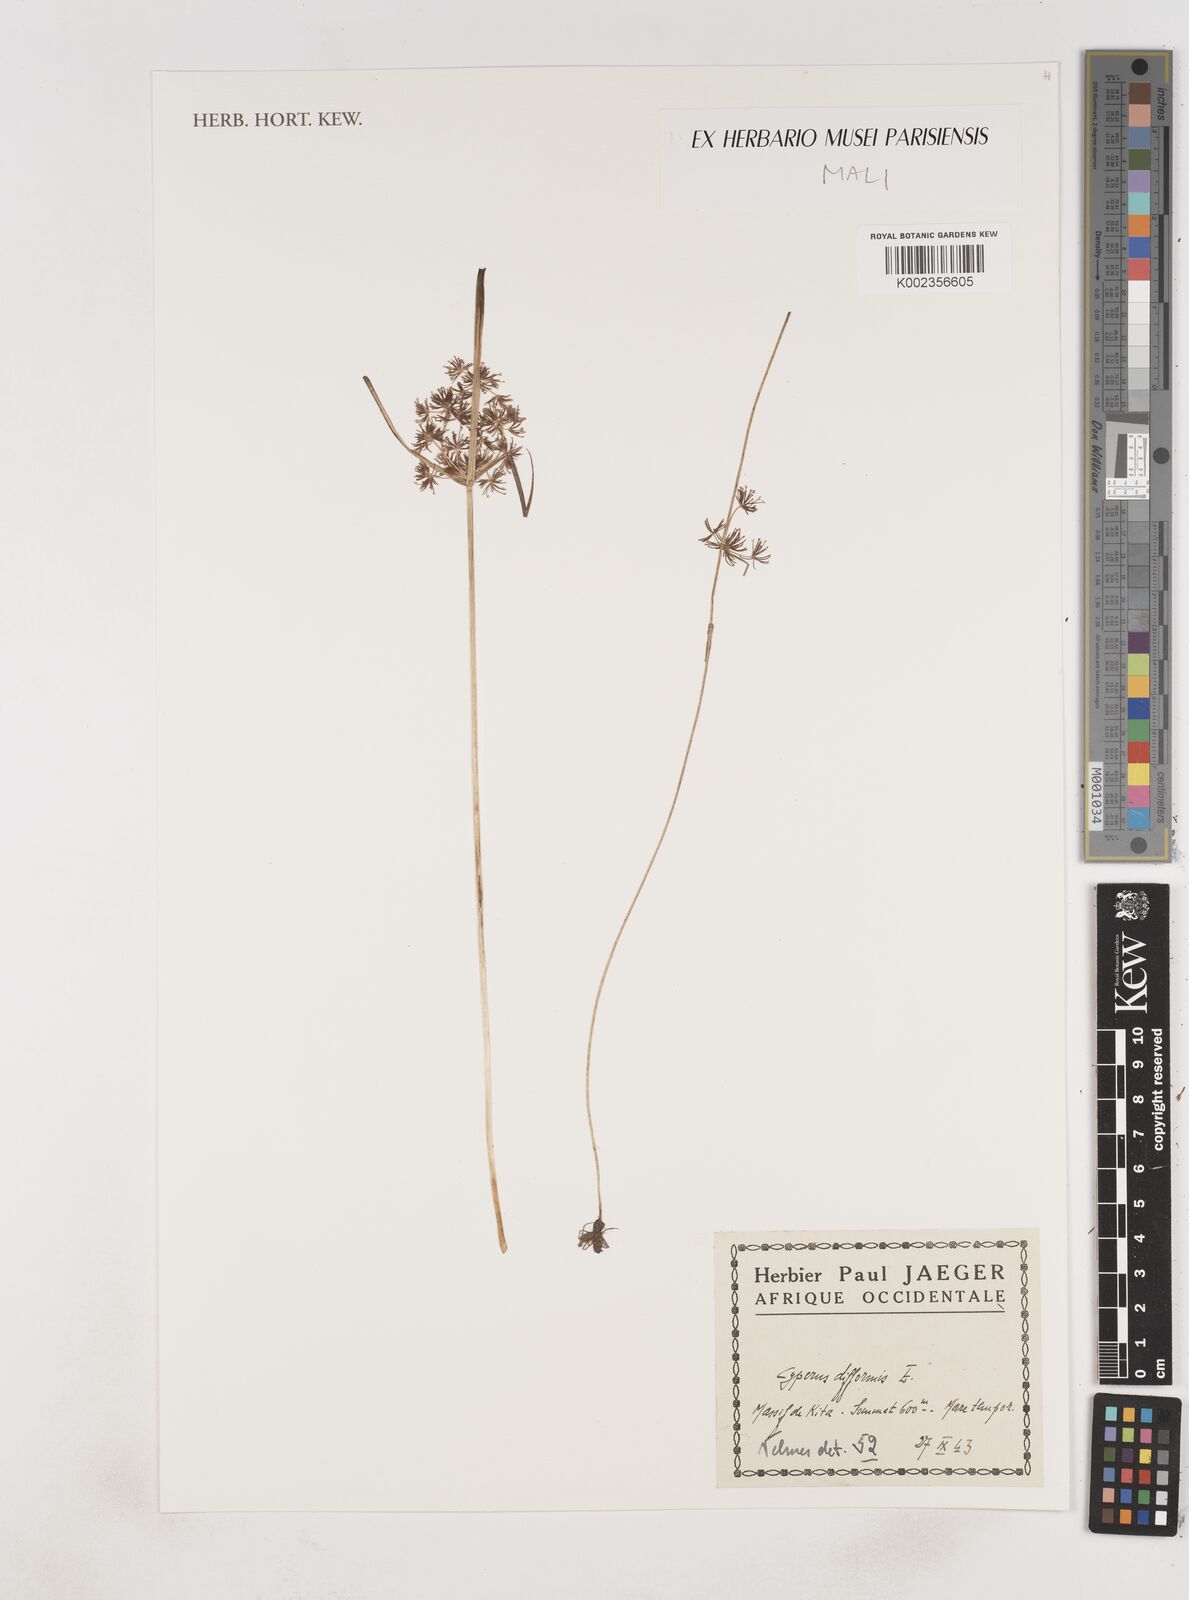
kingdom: Plantae
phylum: Tracheophyta
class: Liliopsida
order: Poales
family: Cyperaceae
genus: Cyperus
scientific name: Cyperus difformis
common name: Variable flatsedge
